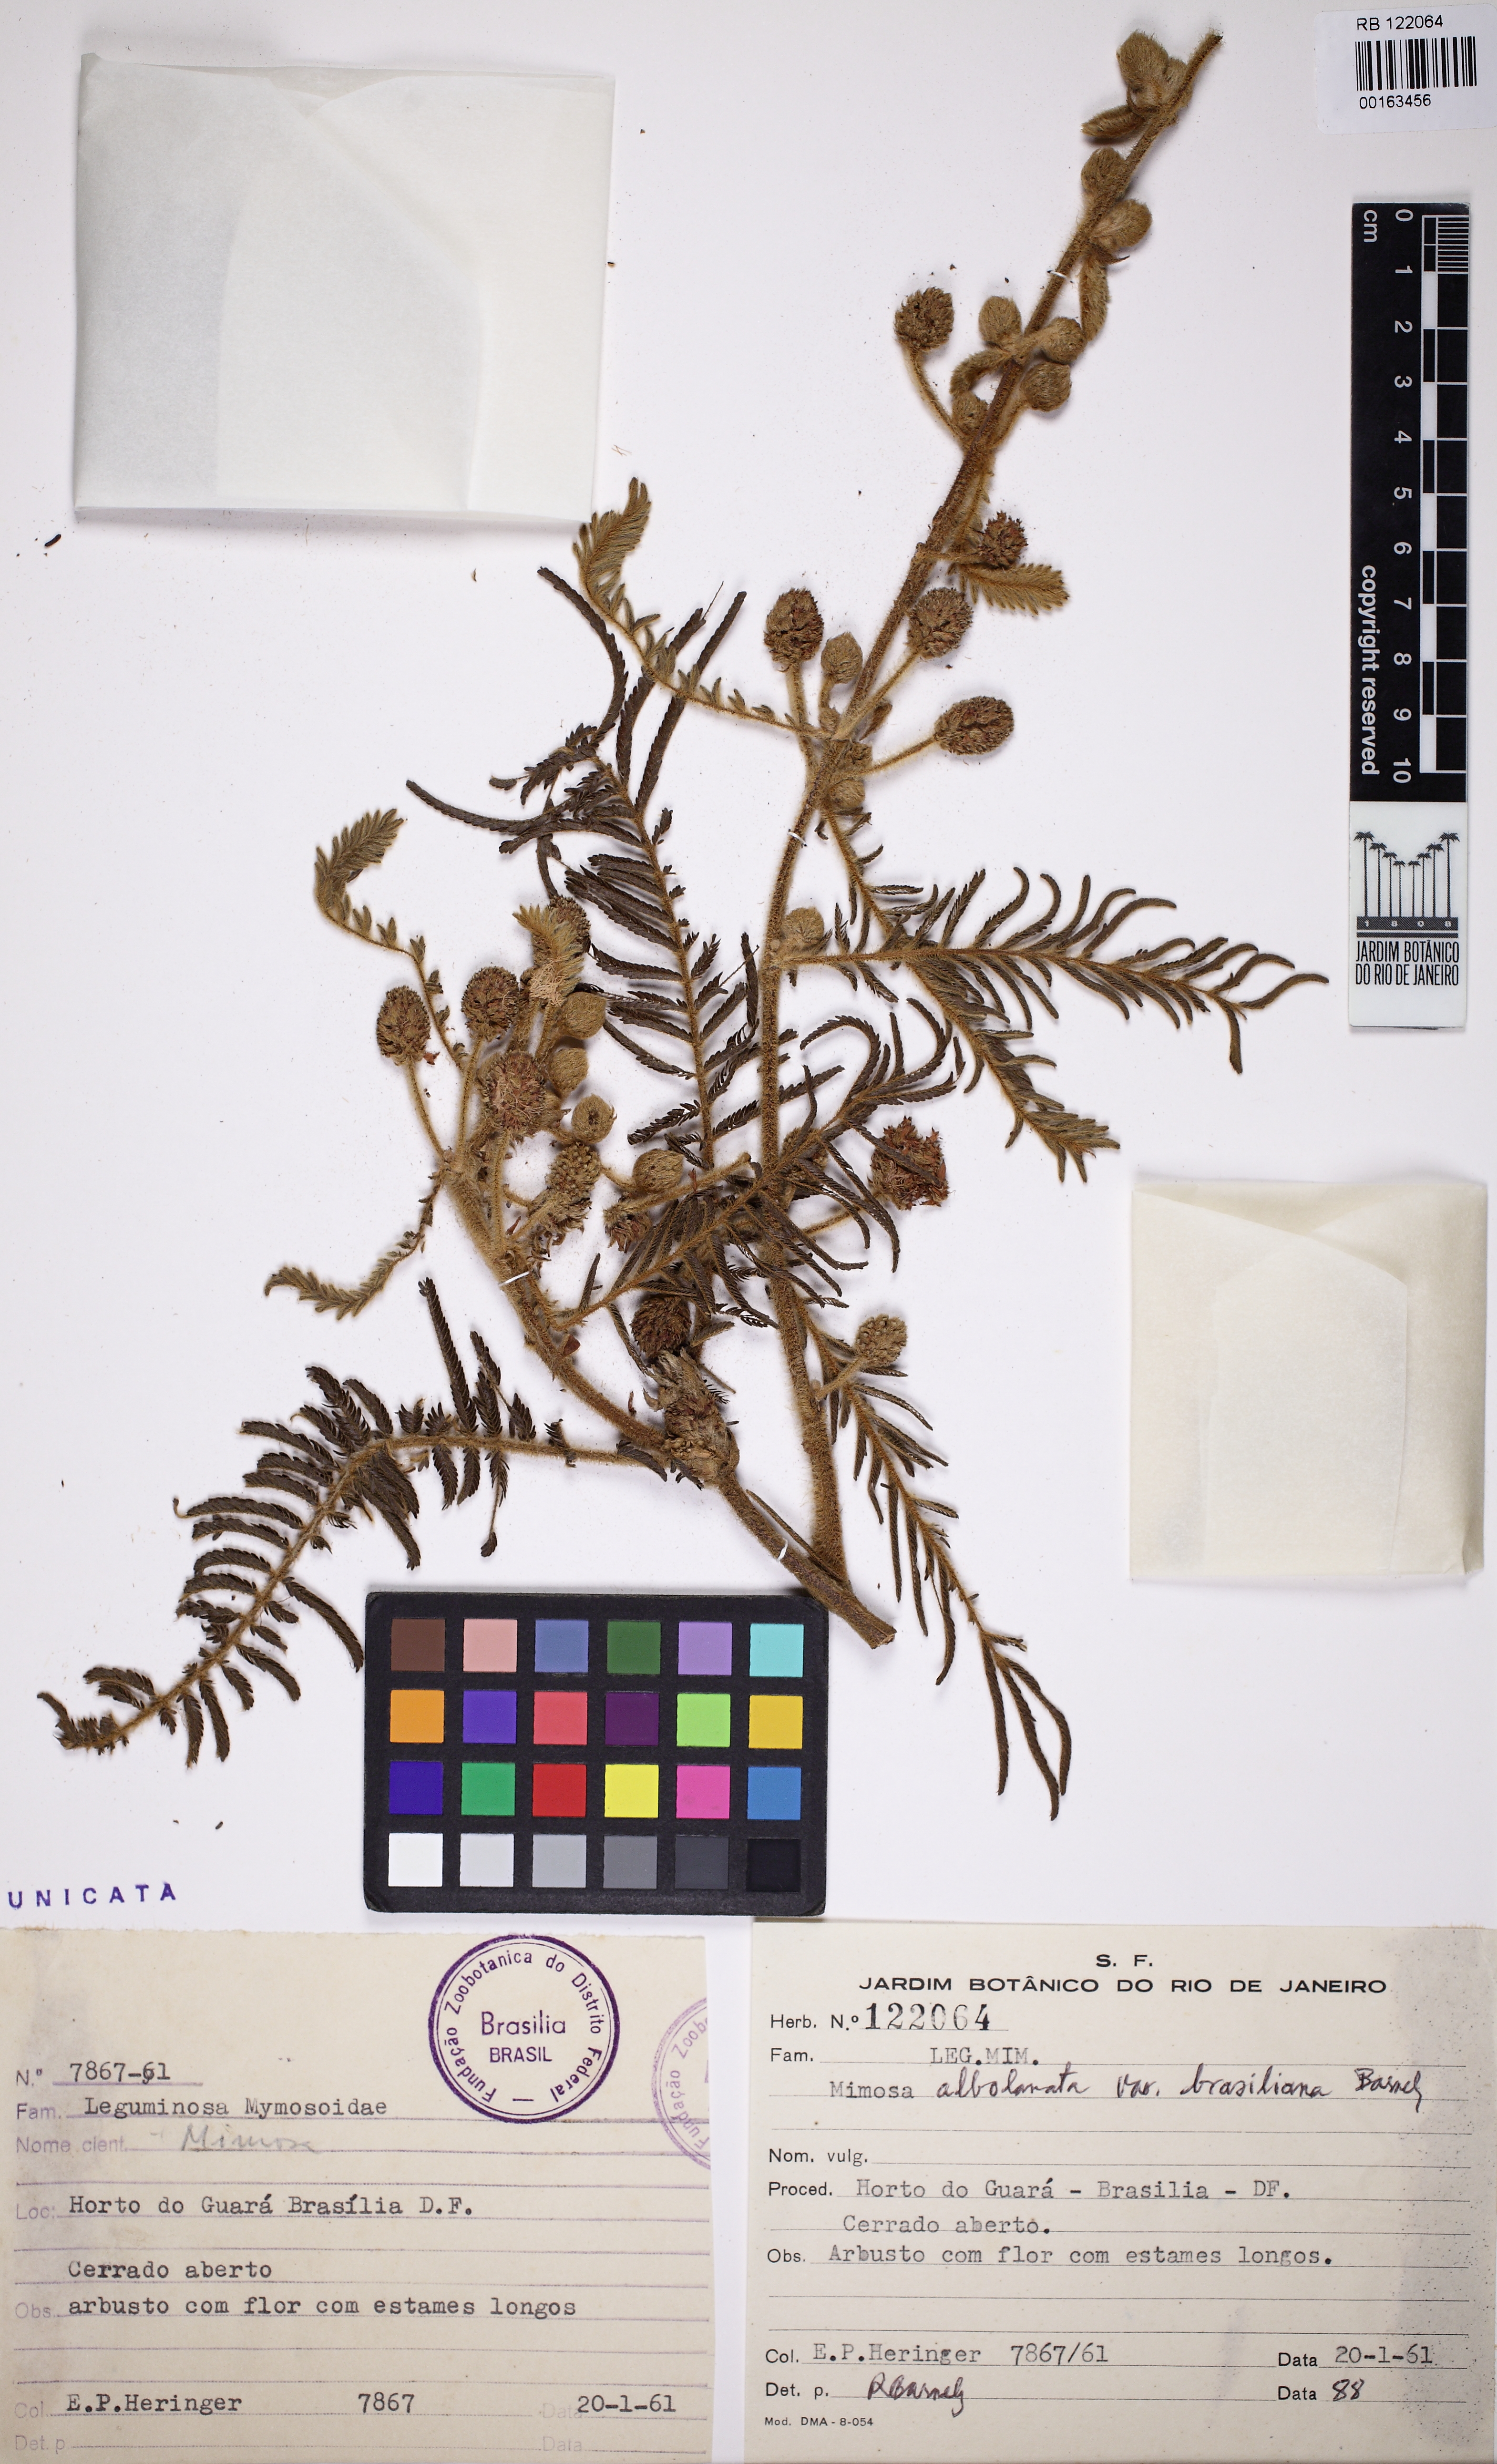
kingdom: Plantae
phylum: Tracheophyta
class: Magnoliopsida
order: Fabales
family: Fabaceae
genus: Mimosa
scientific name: Mimosa albolanata
